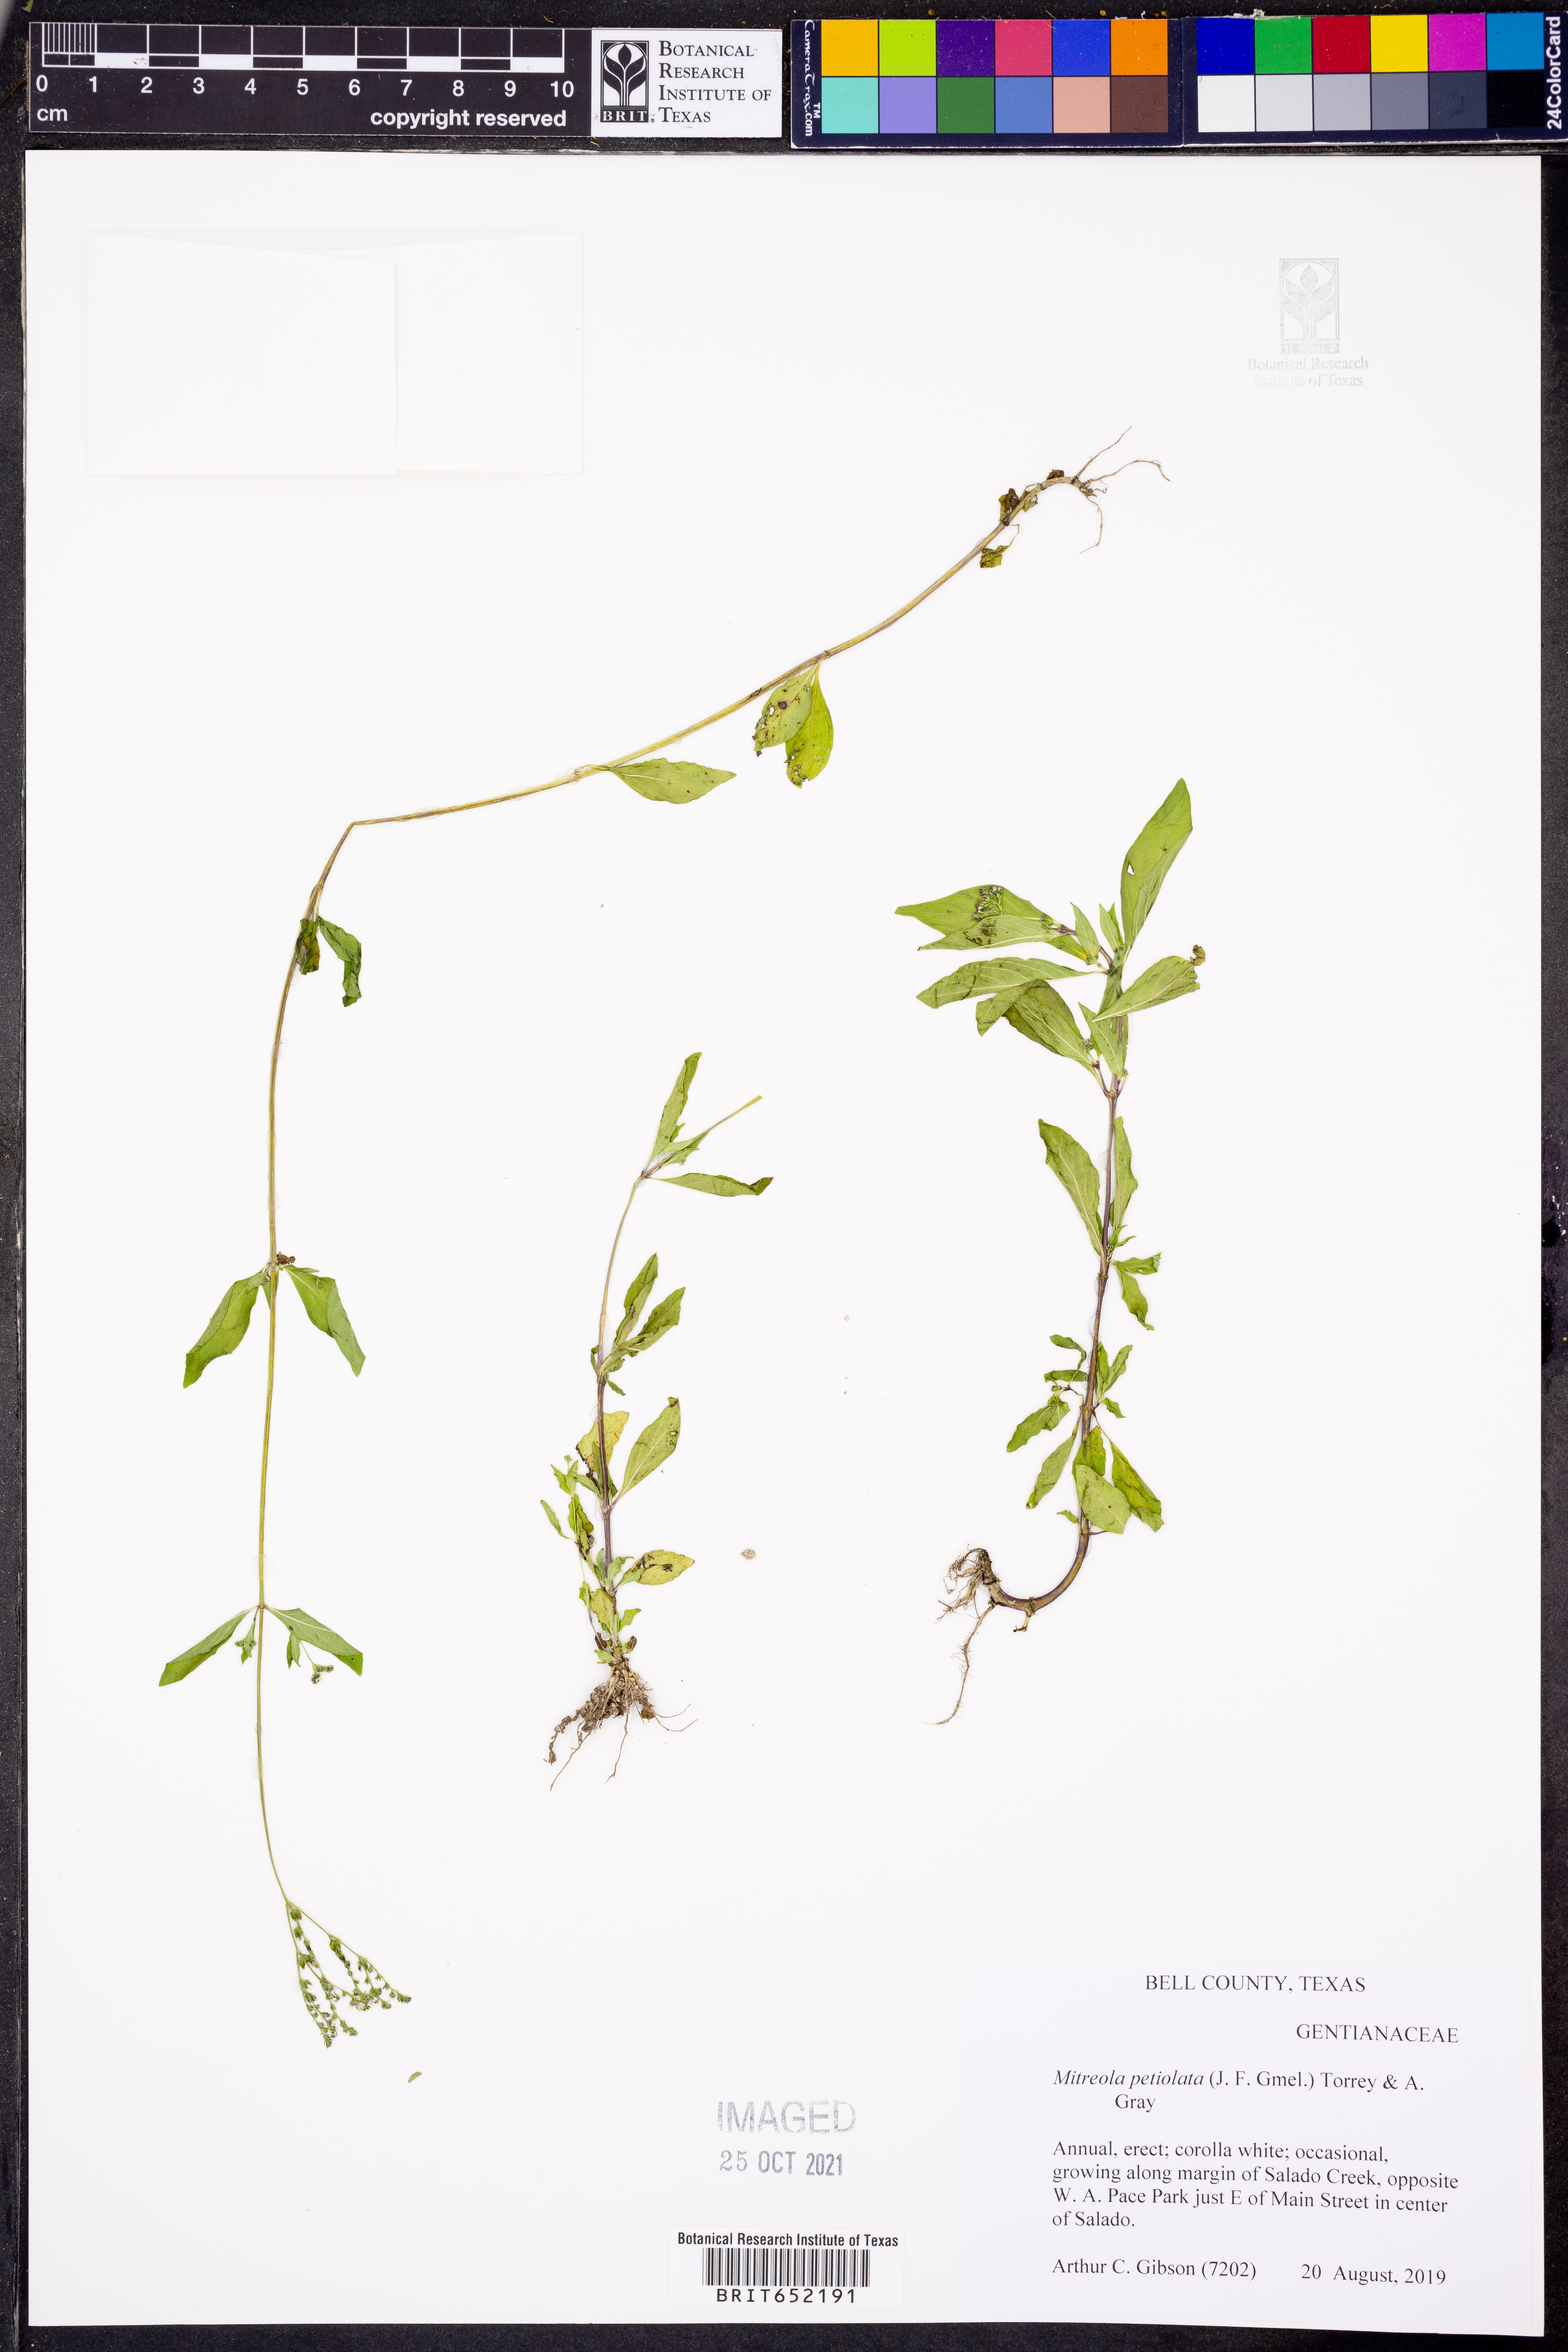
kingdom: Plantae
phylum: Tracheophyta
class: Magnoliopsida
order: Gentianales
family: Loganiaceae
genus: Mitreola
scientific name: Mitreola petiolata
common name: Lax hornpod
